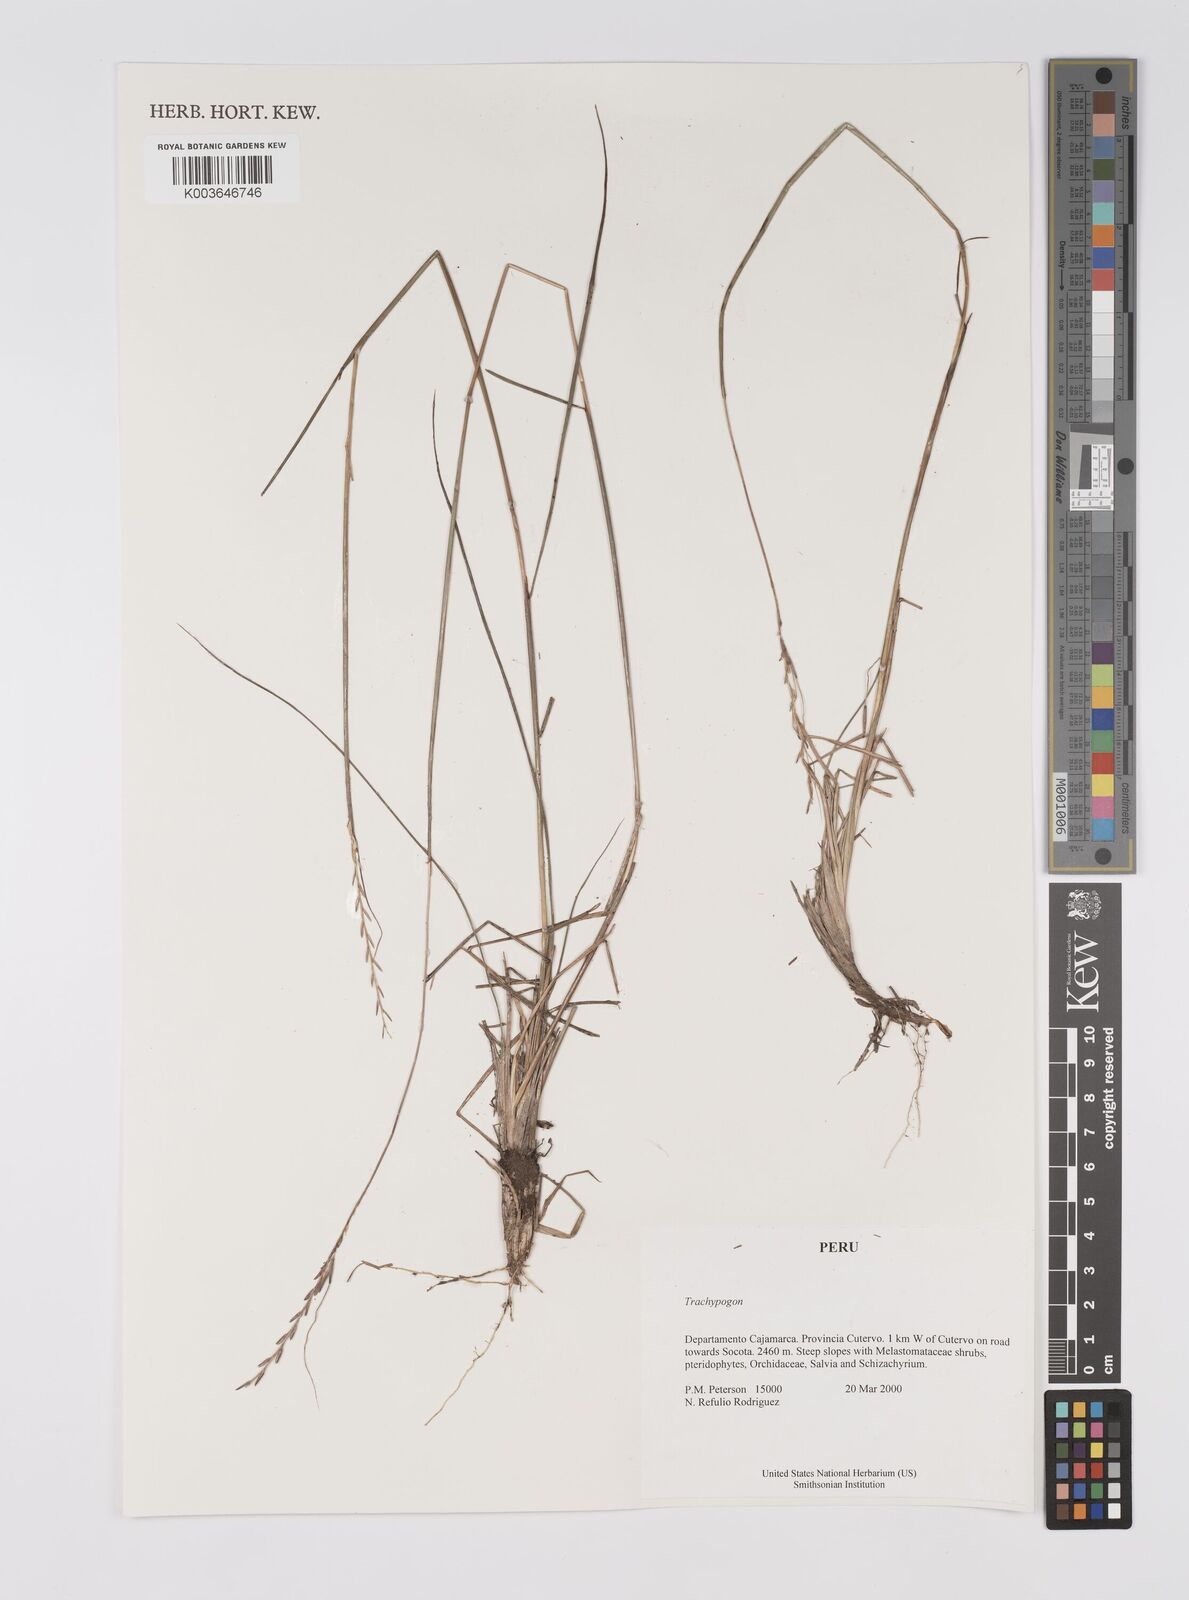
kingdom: Plantae
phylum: Tracheophyta
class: Liliopsida
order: Poales
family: Poaceae
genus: Trachypogon
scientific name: Trachypogon spicatus
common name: Crinkle-awn
